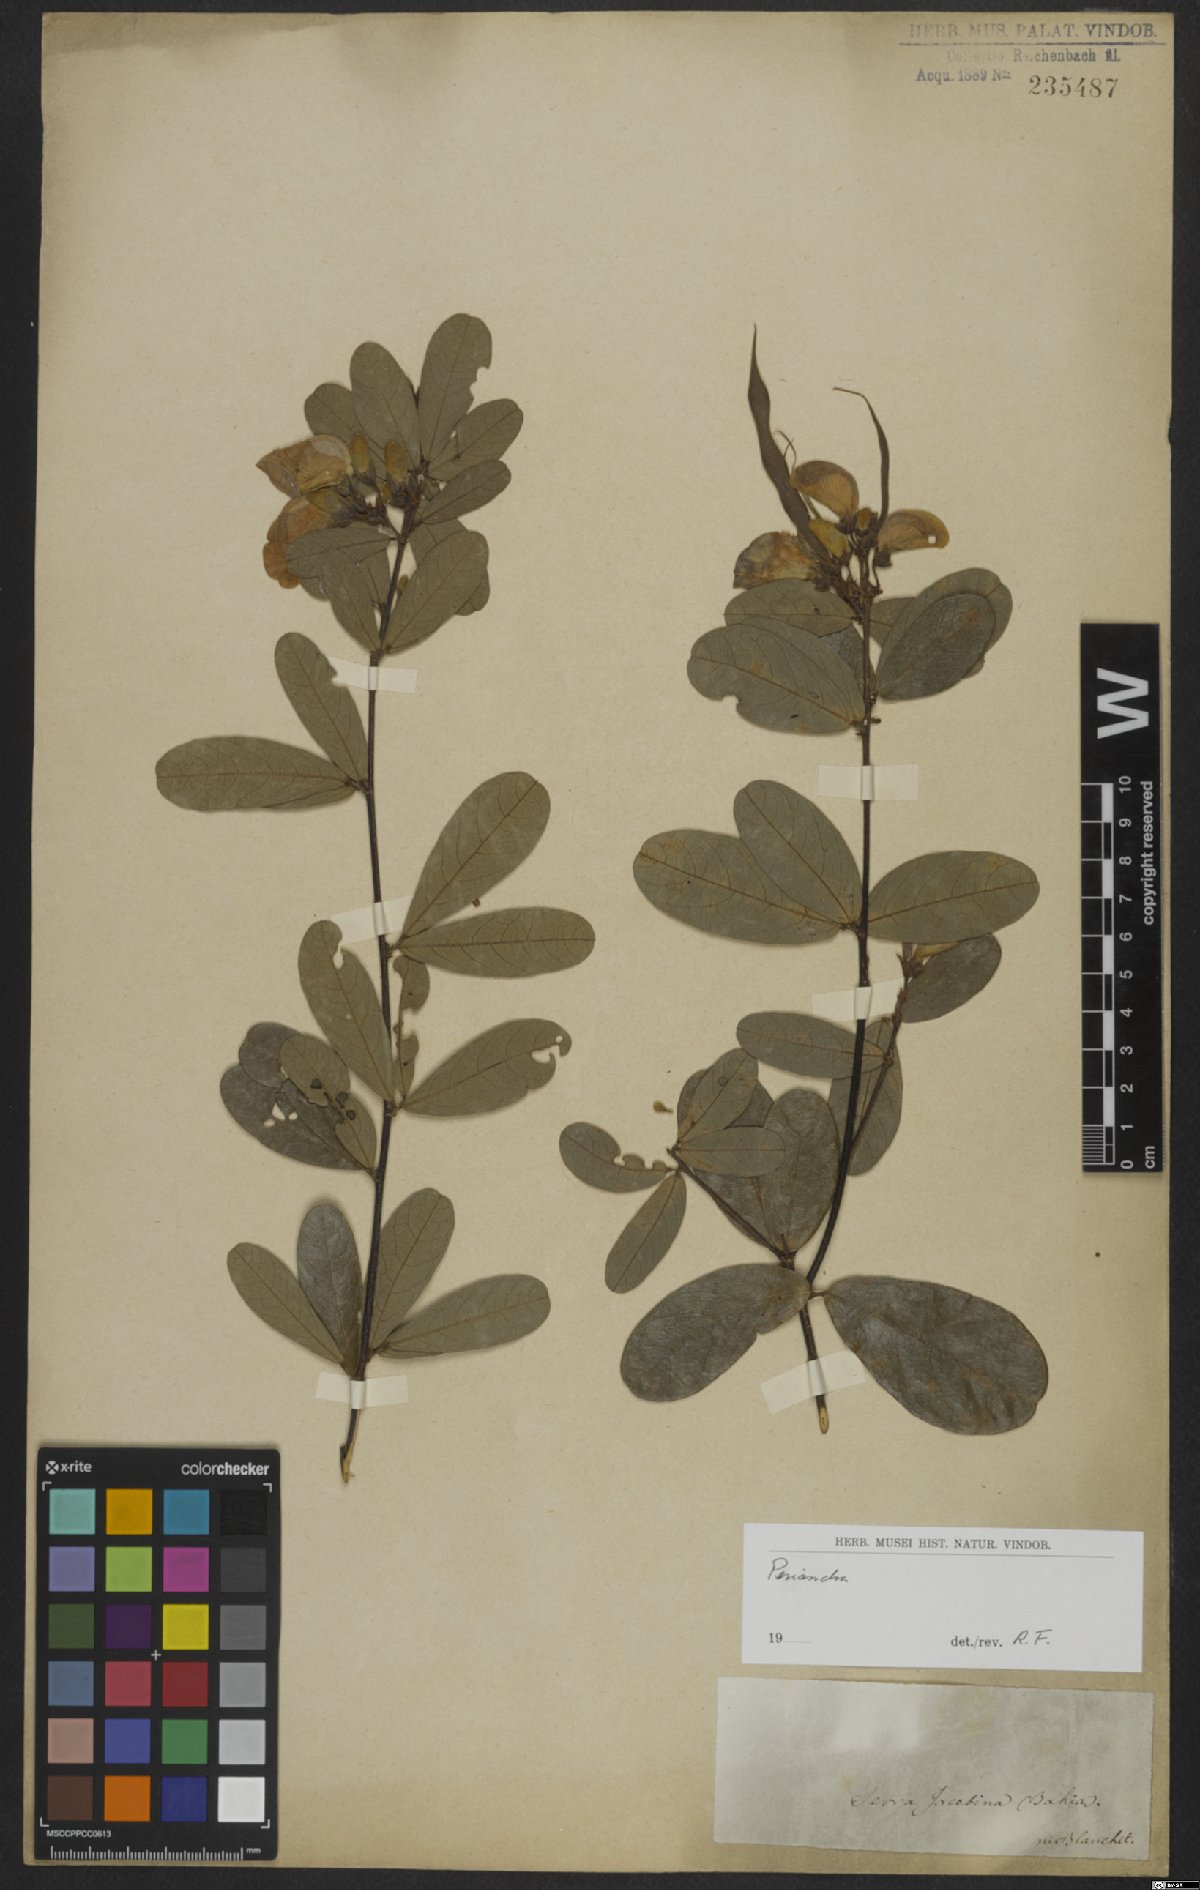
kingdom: Plantae
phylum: Tracheophyta
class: Magnoliopsida
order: Fabales
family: Fabaceae
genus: Periandra
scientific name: Periandra
